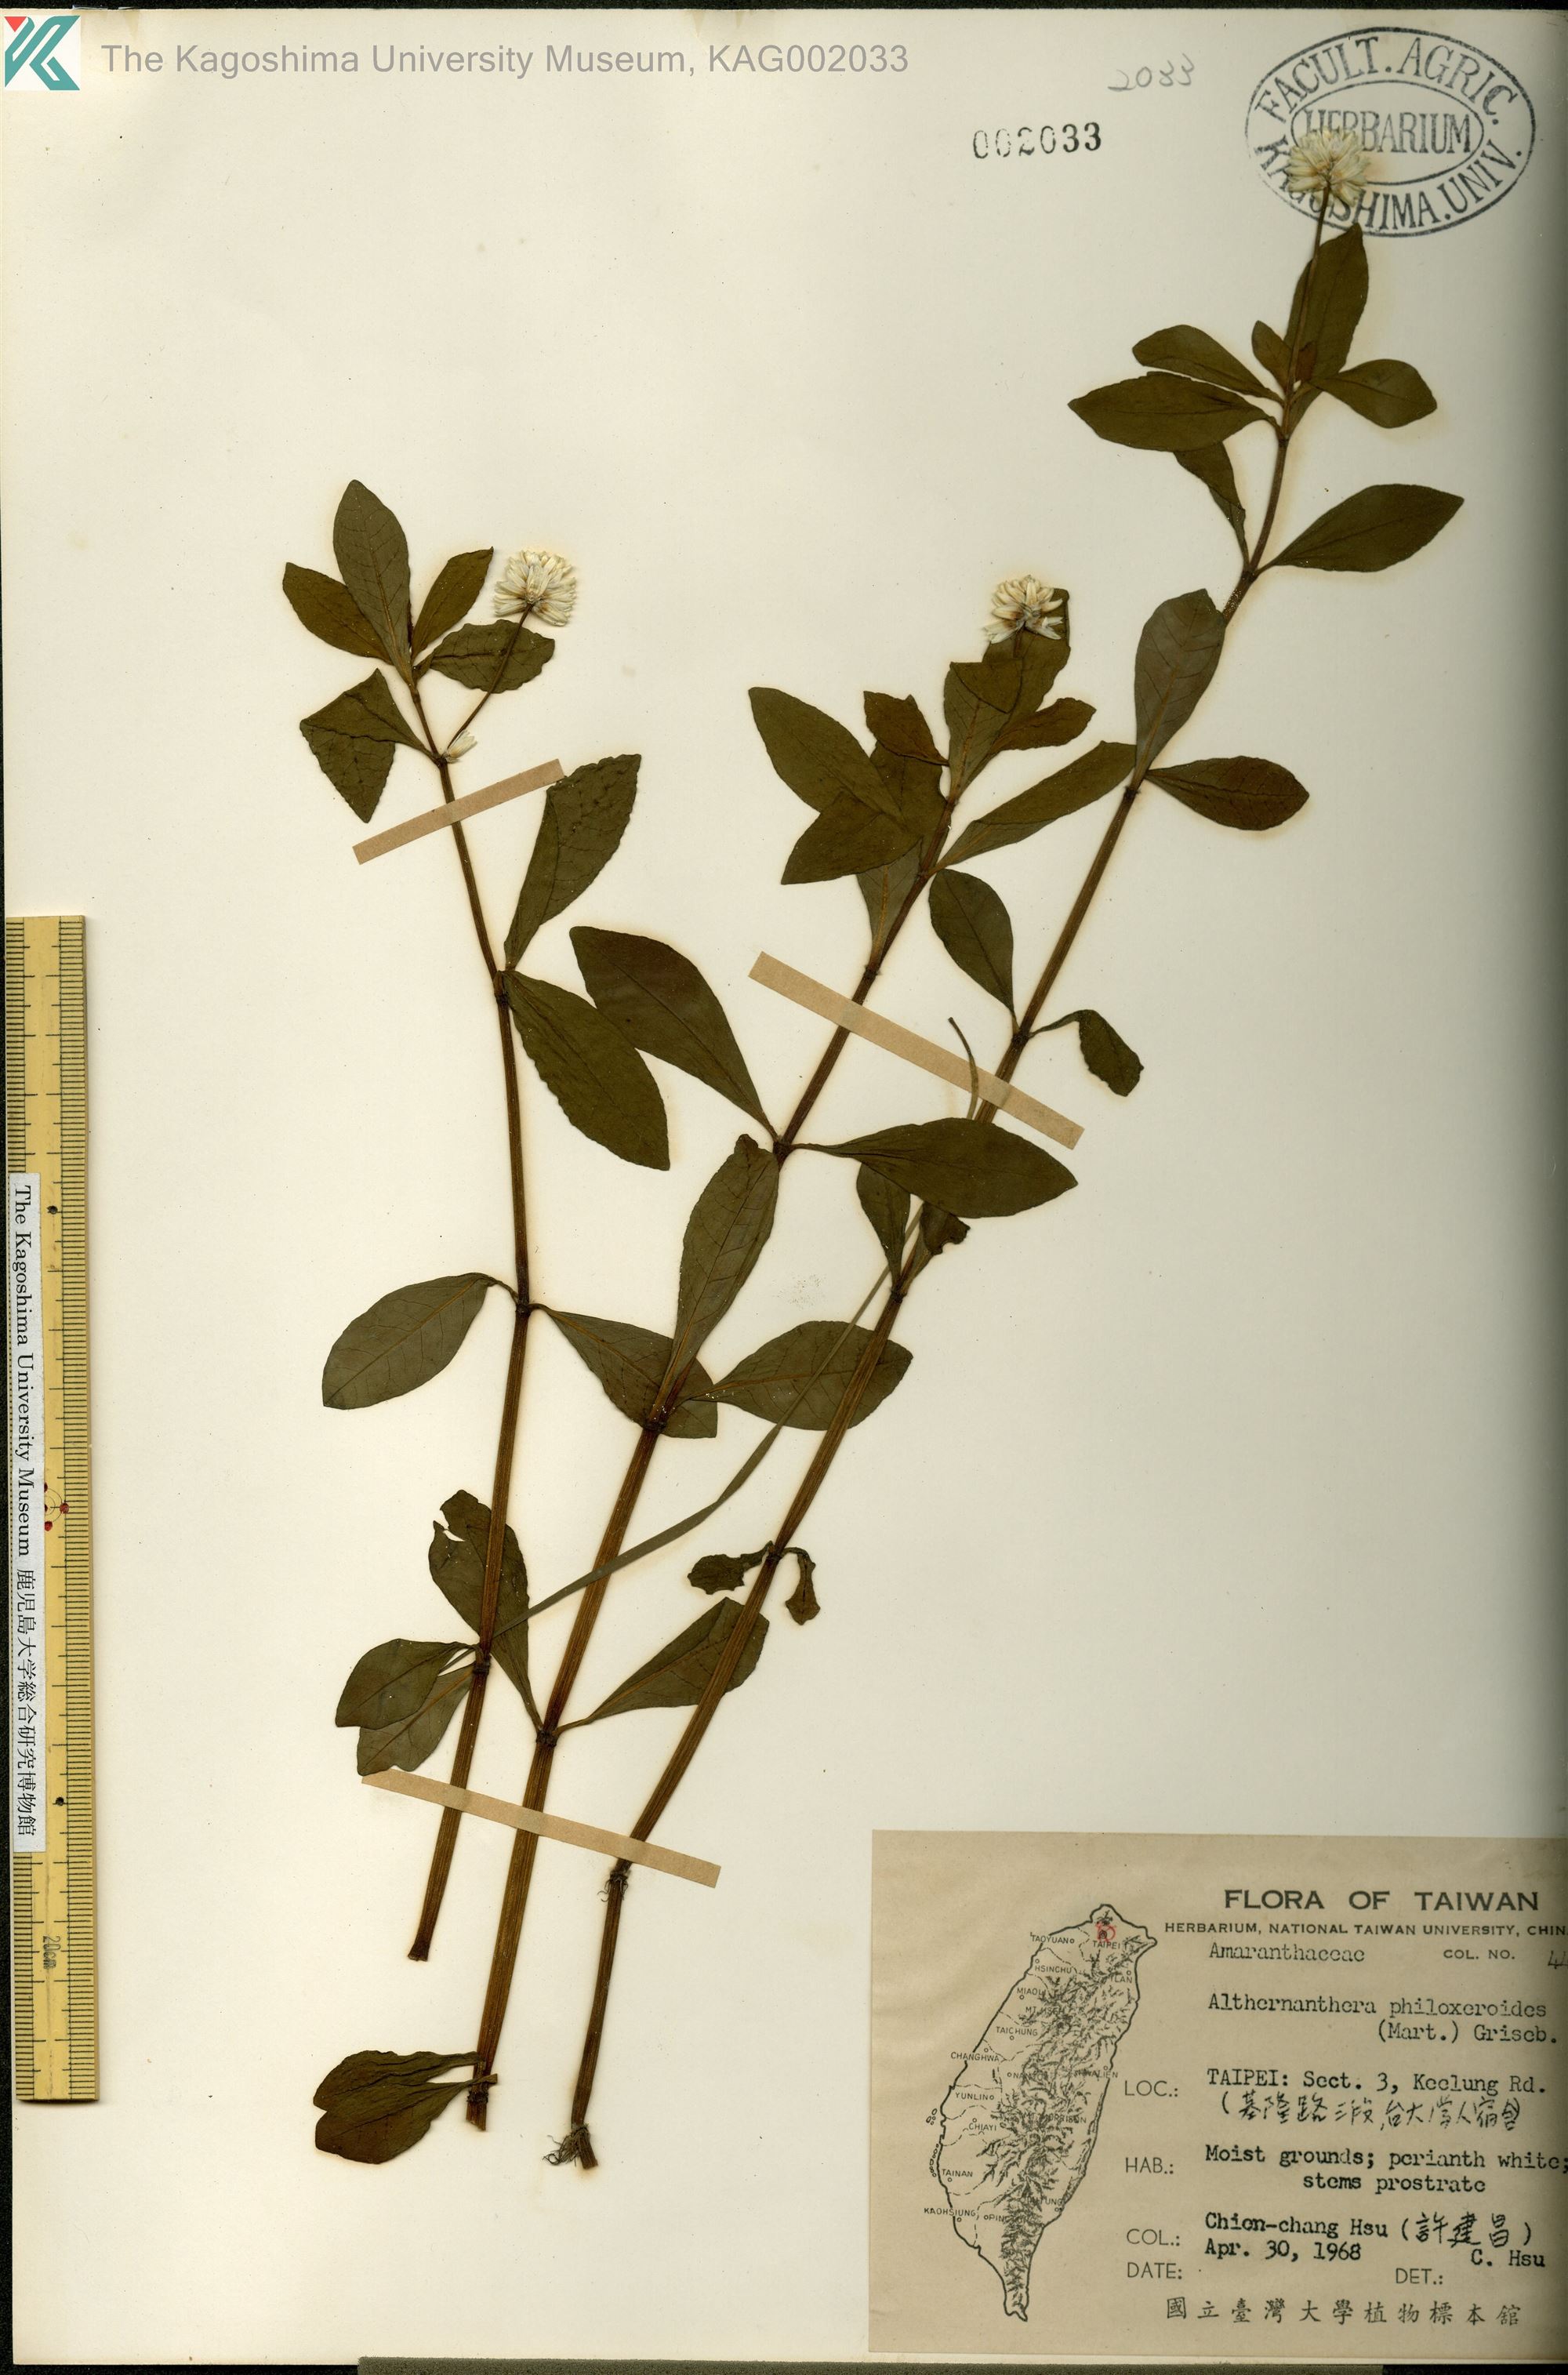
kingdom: Plantae
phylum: Tracheophyta
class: Magnoliopsida
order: Caryophyllales
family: Amaranthaceae
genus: Alternanthera
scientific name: Alternanthera philoxeroides
